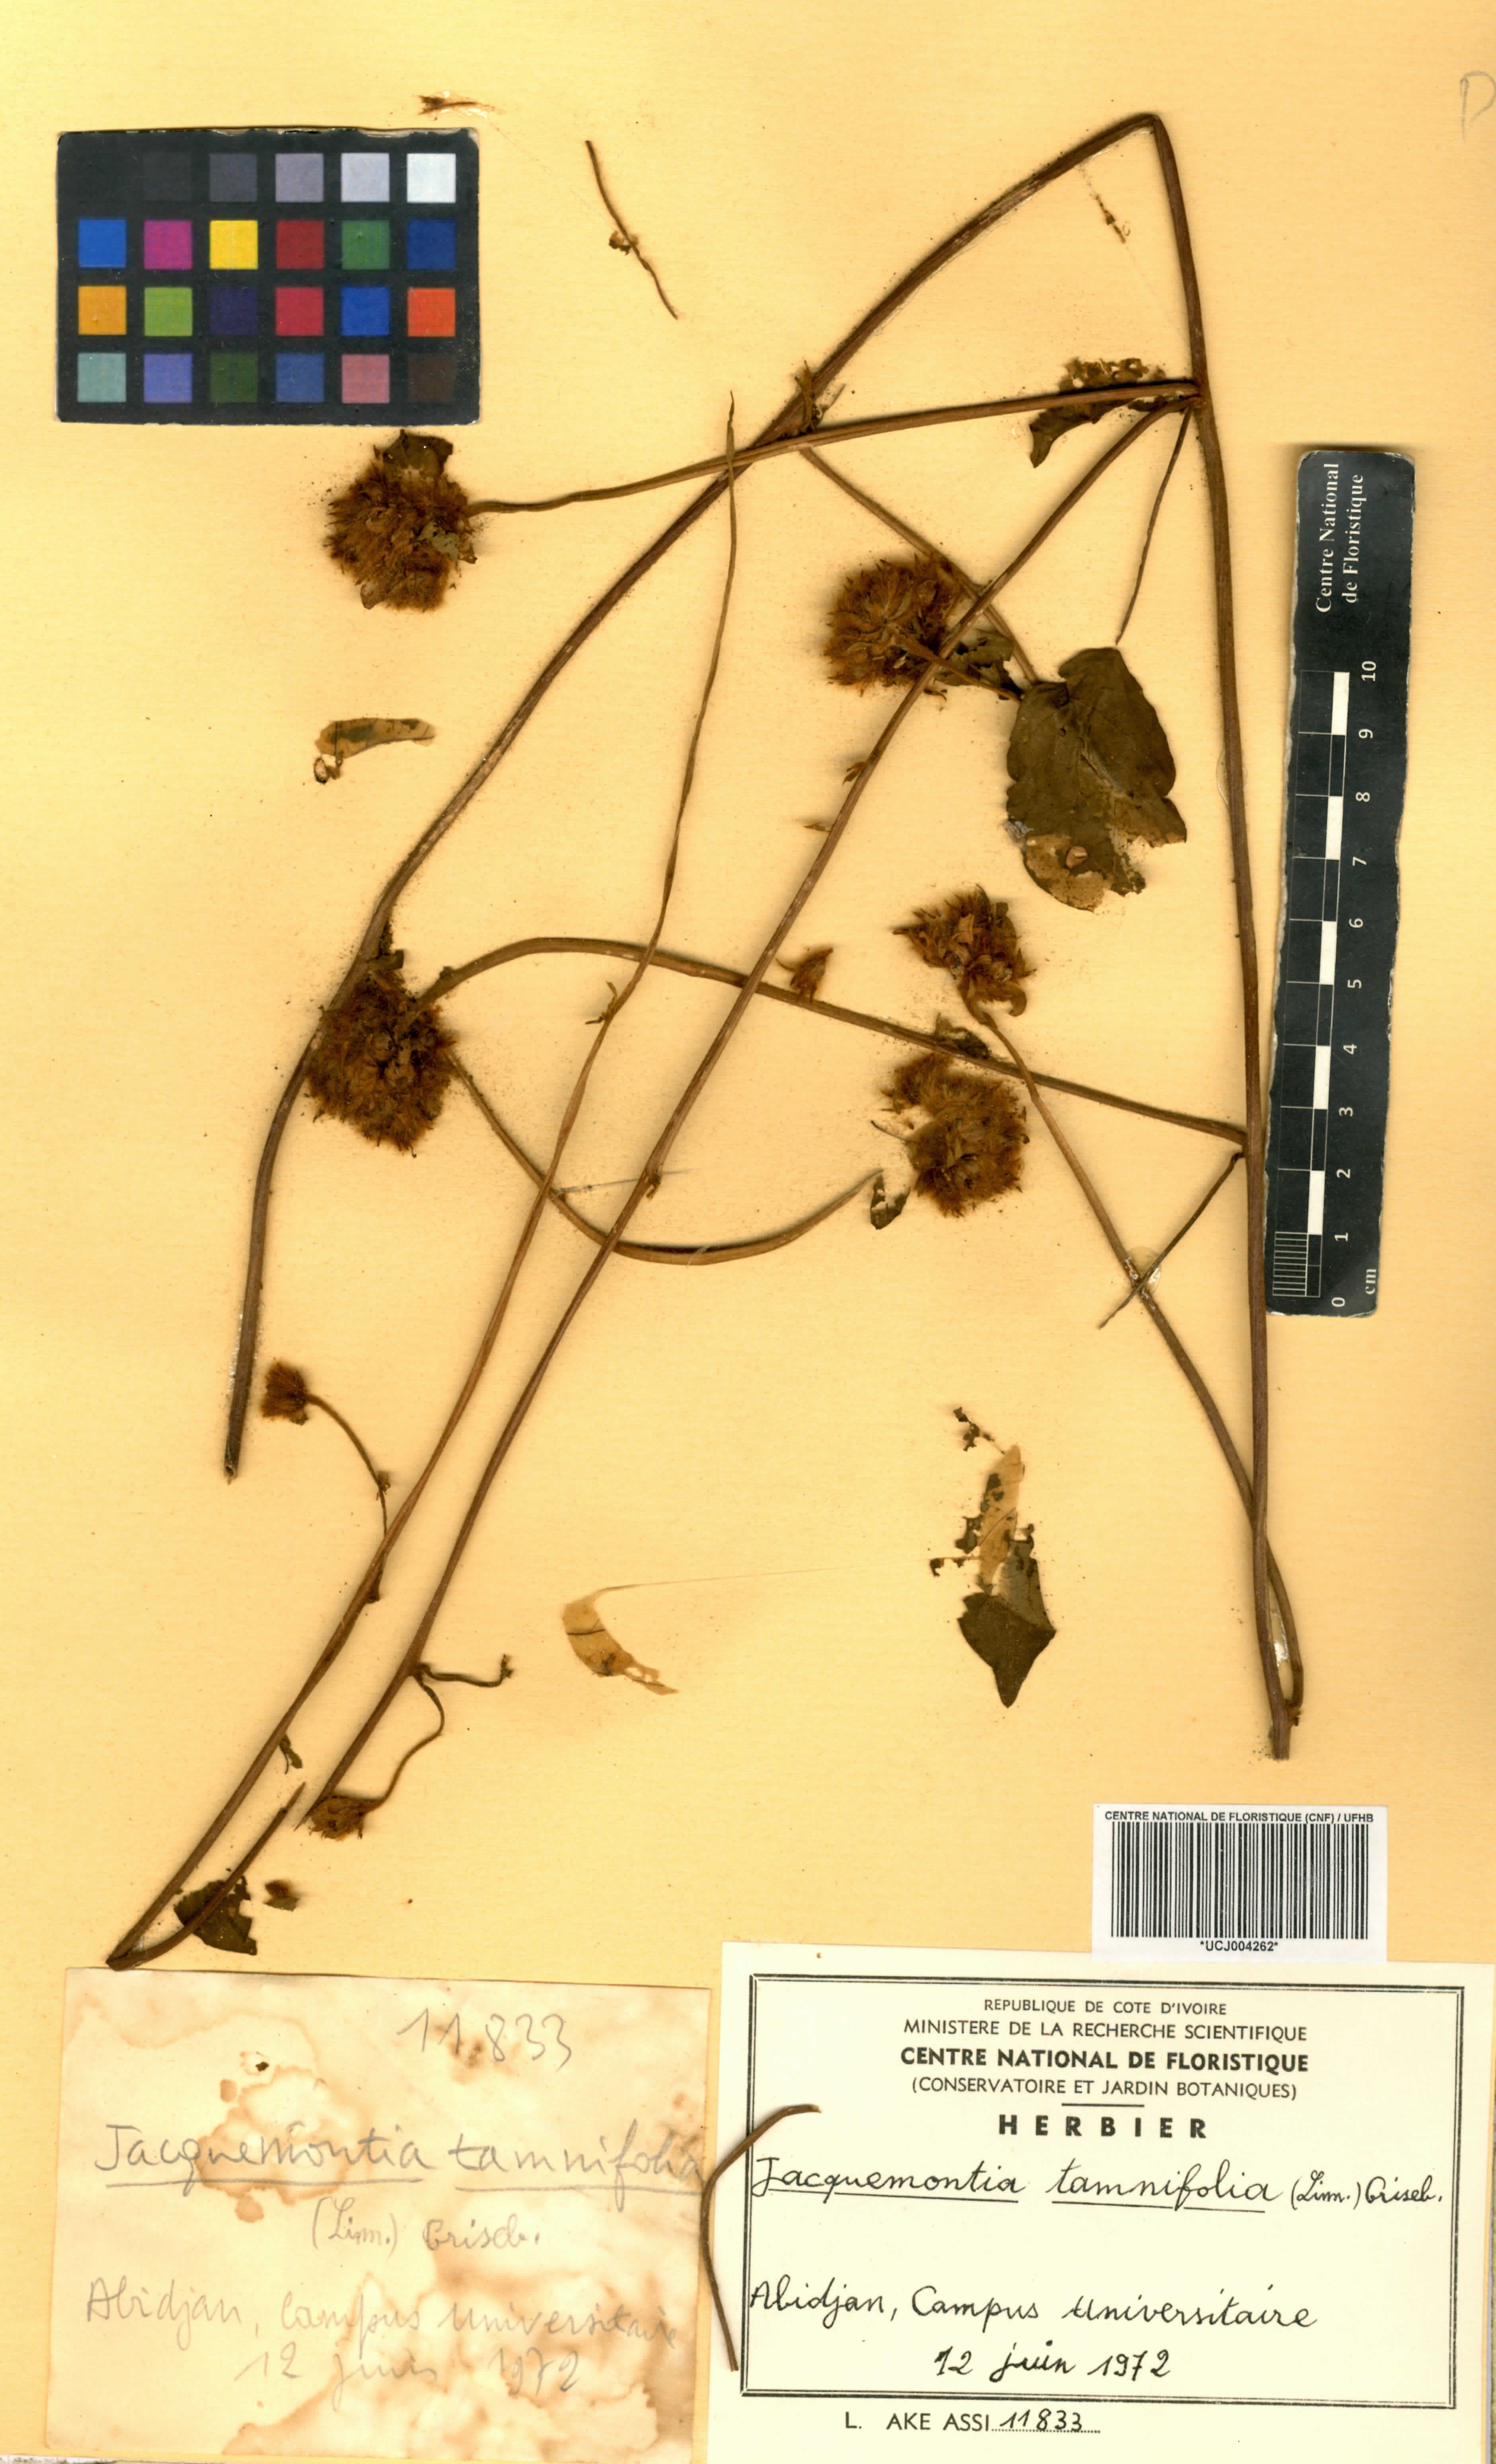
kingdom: Plantae
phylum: Tracheophyta
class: Magnoliopsida
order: Solanales
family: Convolvulaceae
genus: Jacquemontia
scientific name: Jacquemontia tamnifolia
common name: Hairy clustervine
